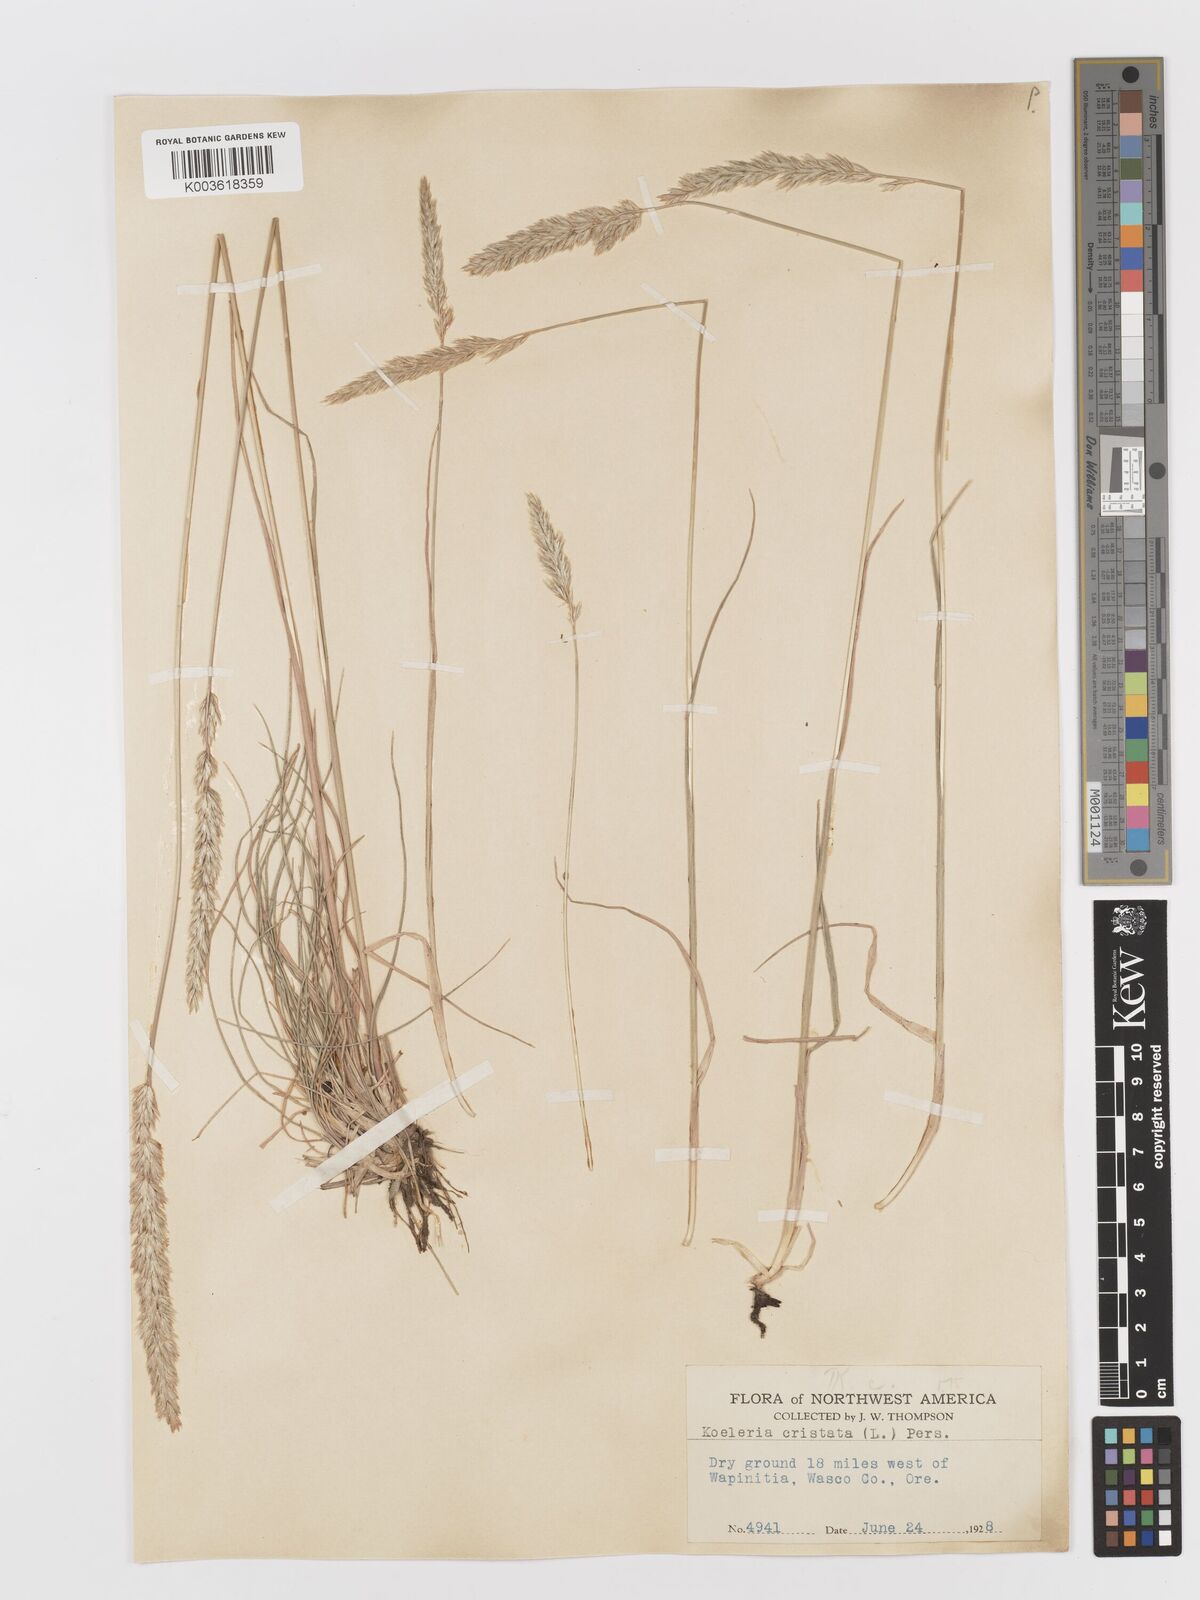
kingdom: Plantae
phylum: Tracheophyta
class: Liliopsida
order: Poales
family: Poaceae
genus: Koeleria
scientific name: Koeleria
